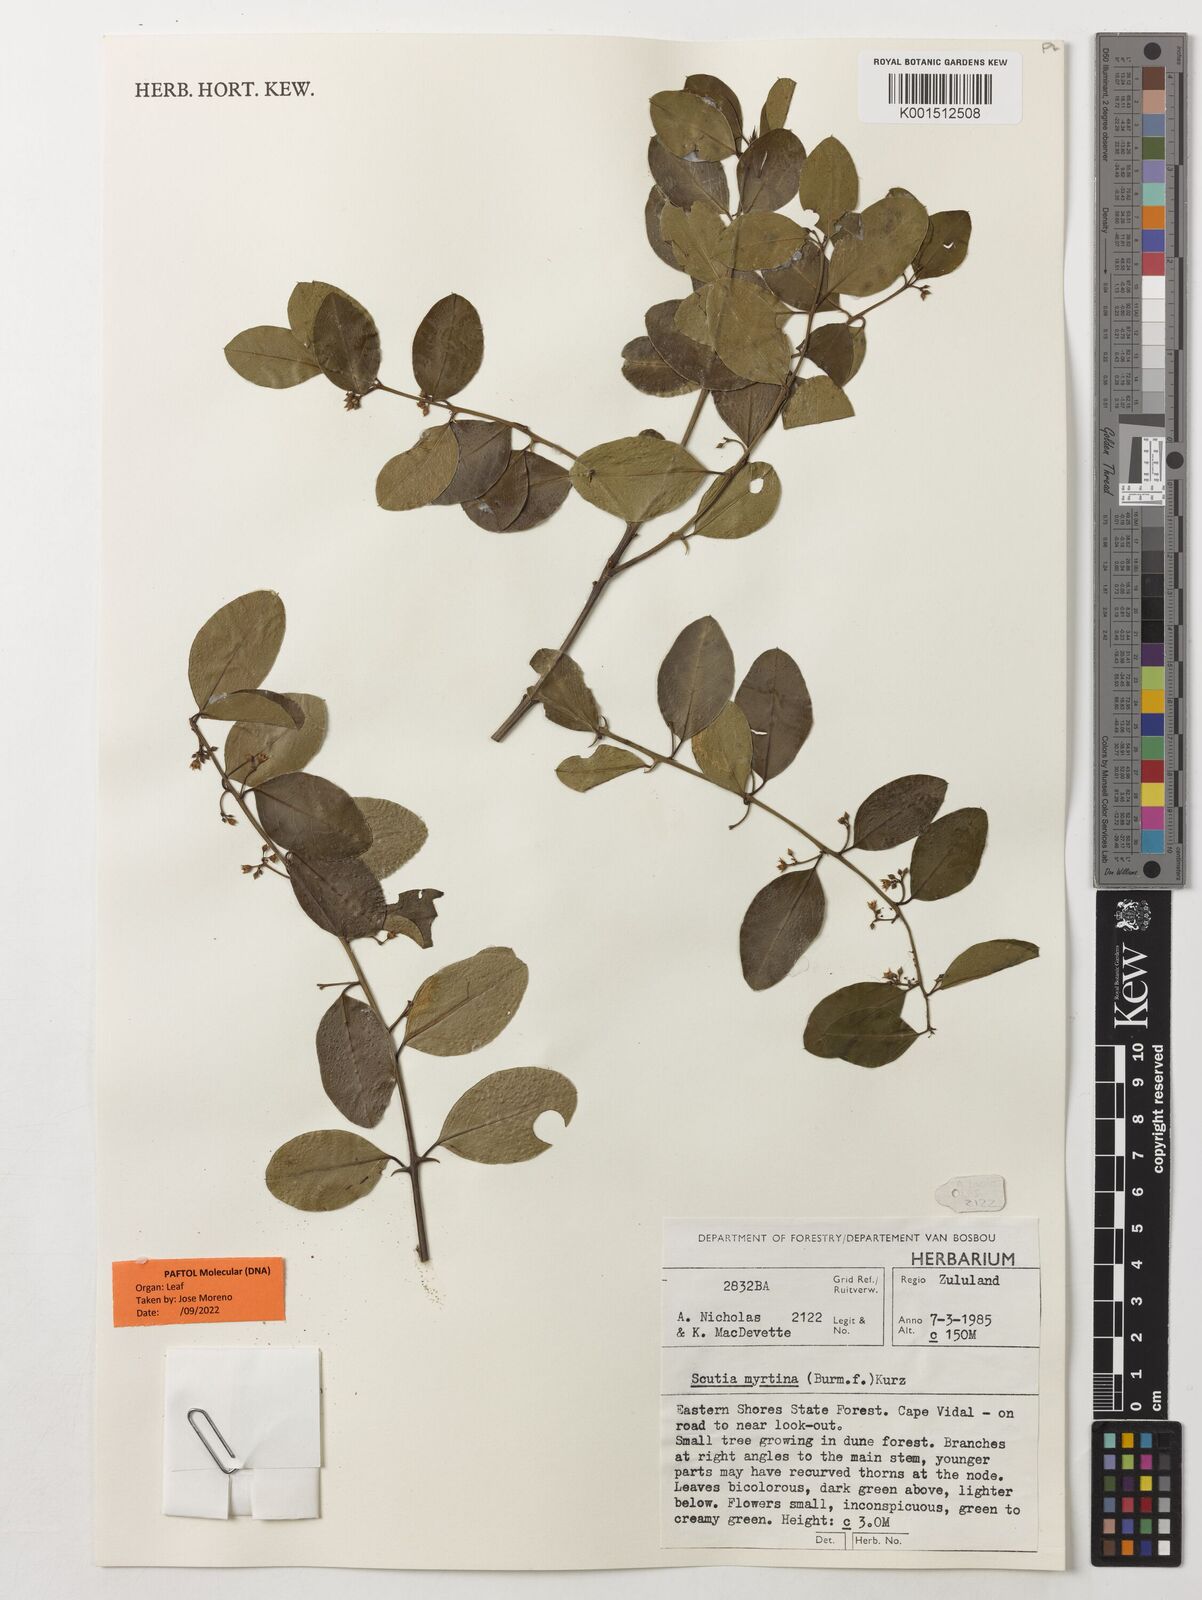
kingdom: Plantae
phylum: Tracheophyta
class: Magnoliopsida
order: Rosales
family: Rhamnaceae
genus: Scutia
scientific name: Scutia myrtina
